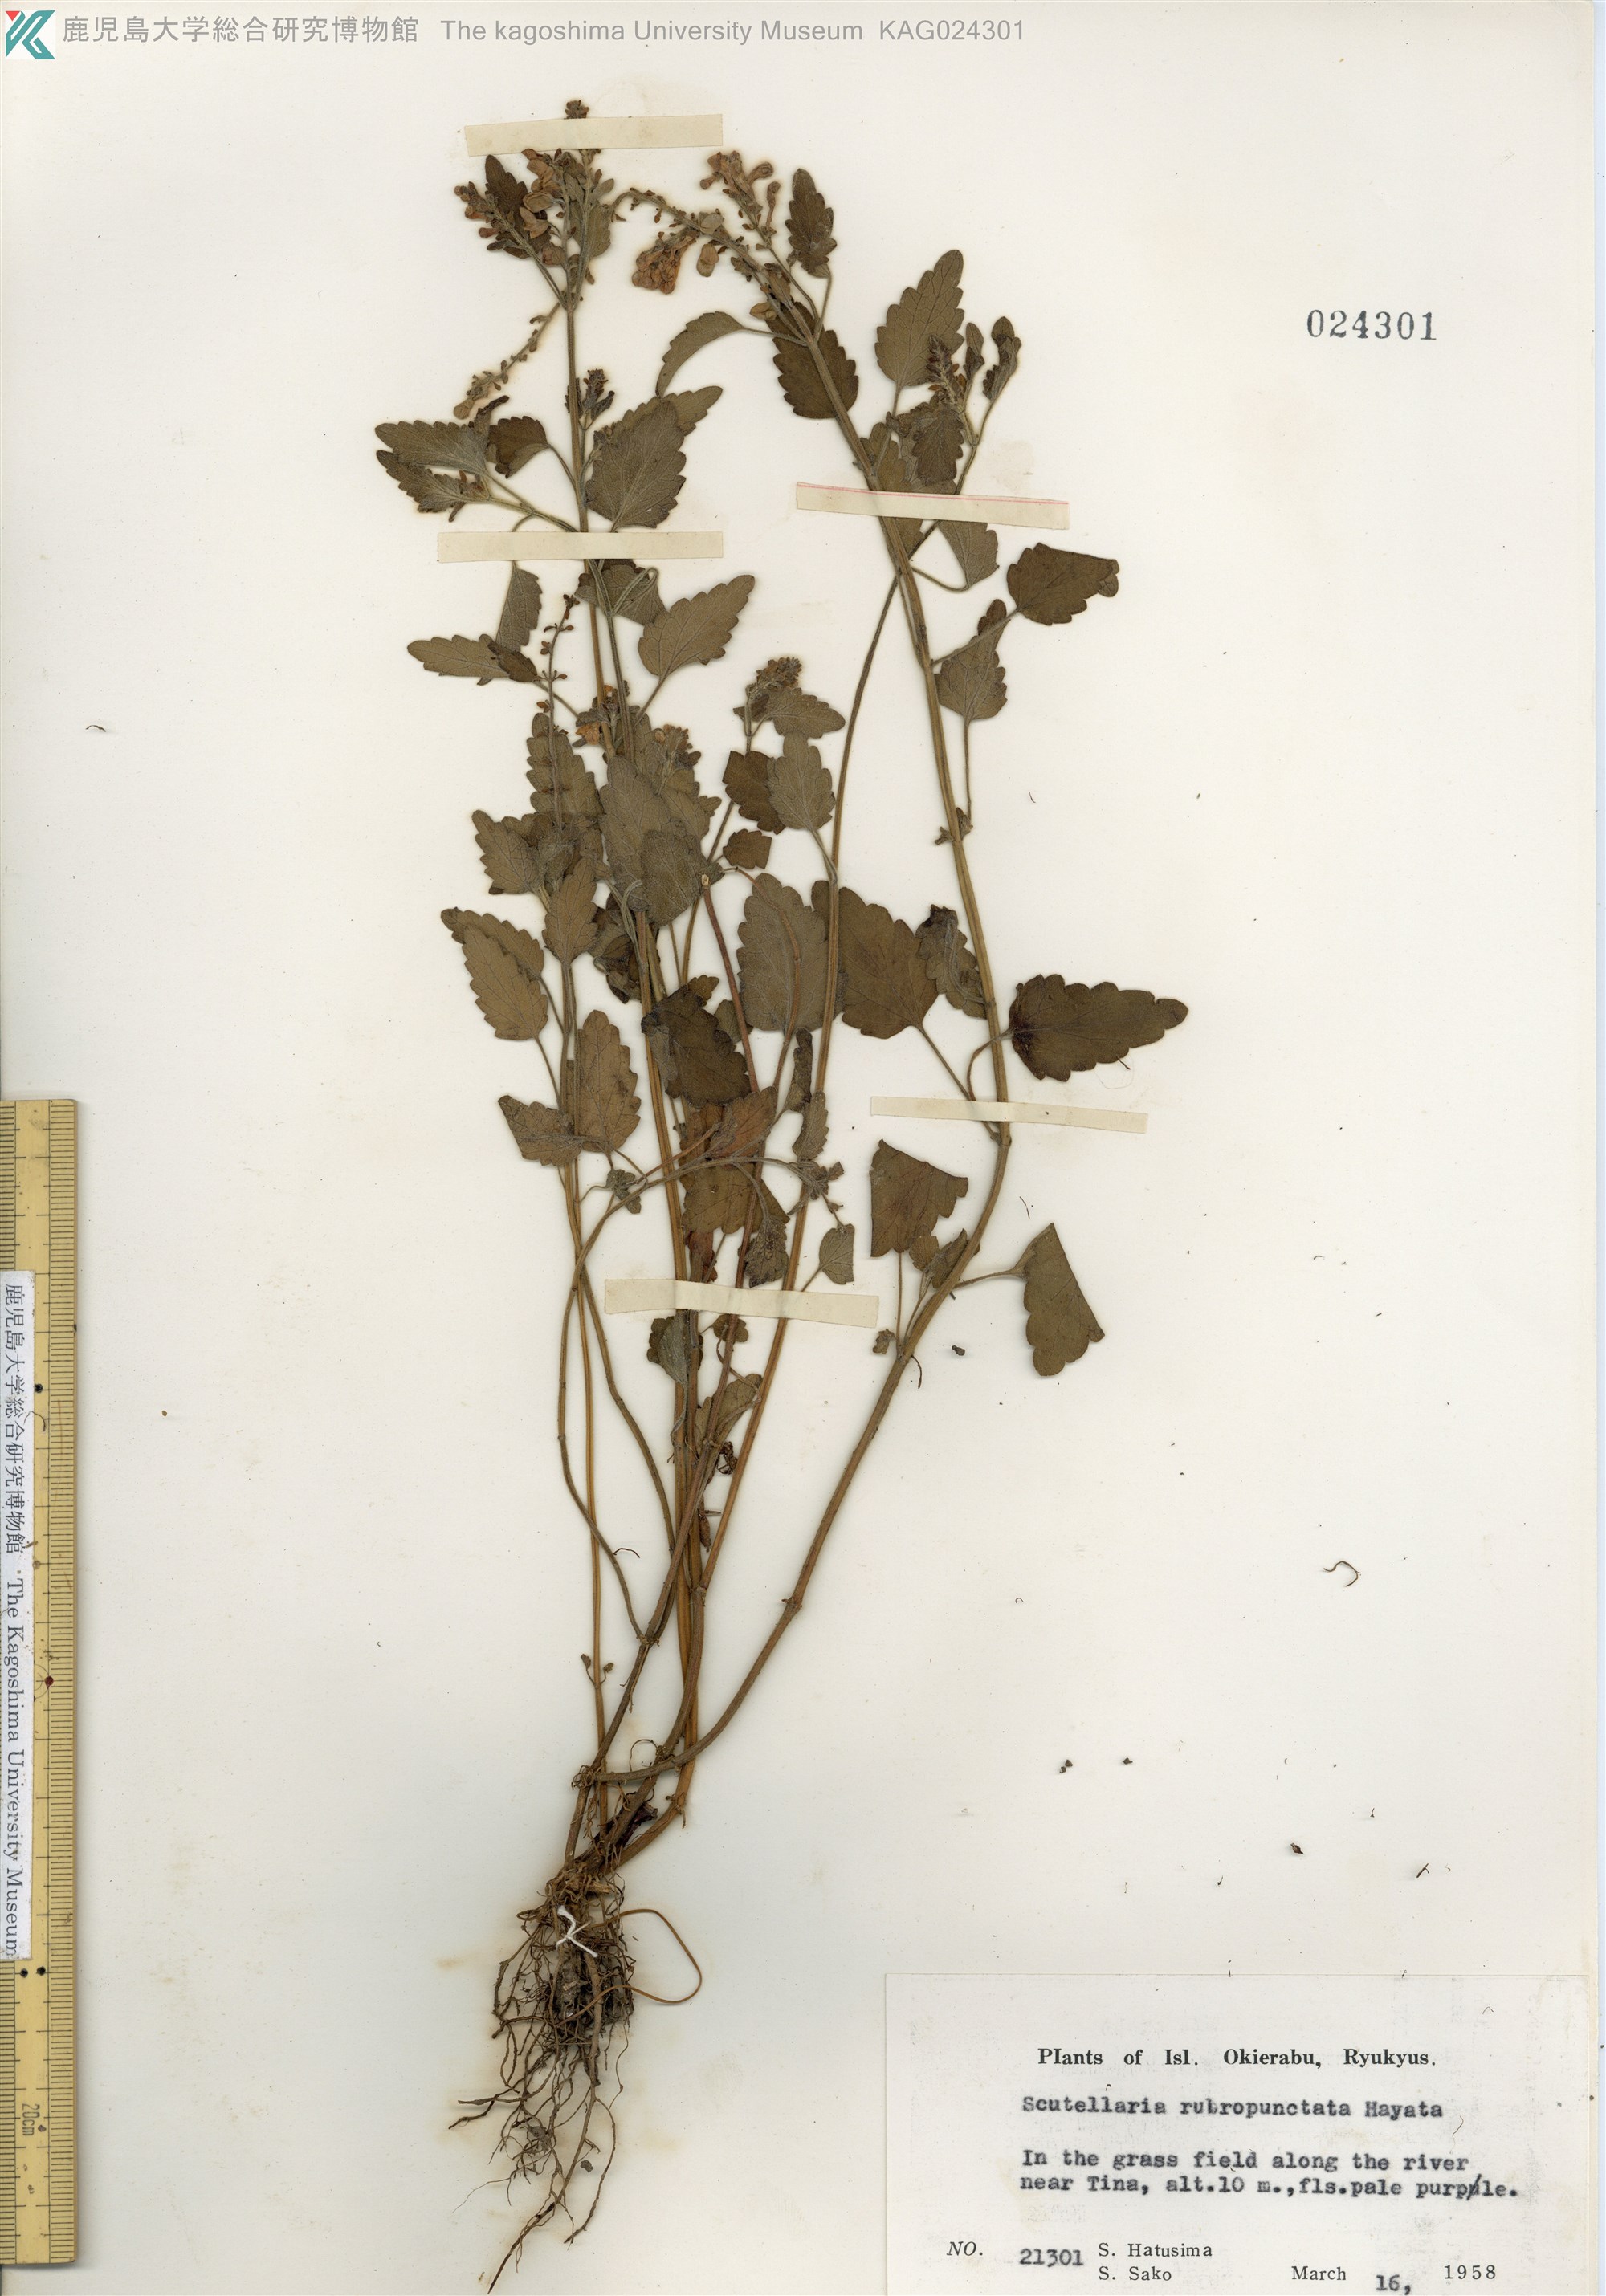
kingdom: Plantae
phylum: Tracheophyta
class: Magnoliopsida
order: Lamiales
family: Lamiaceae
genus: Scutellaria
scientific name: Scutellaria rubropunctata
